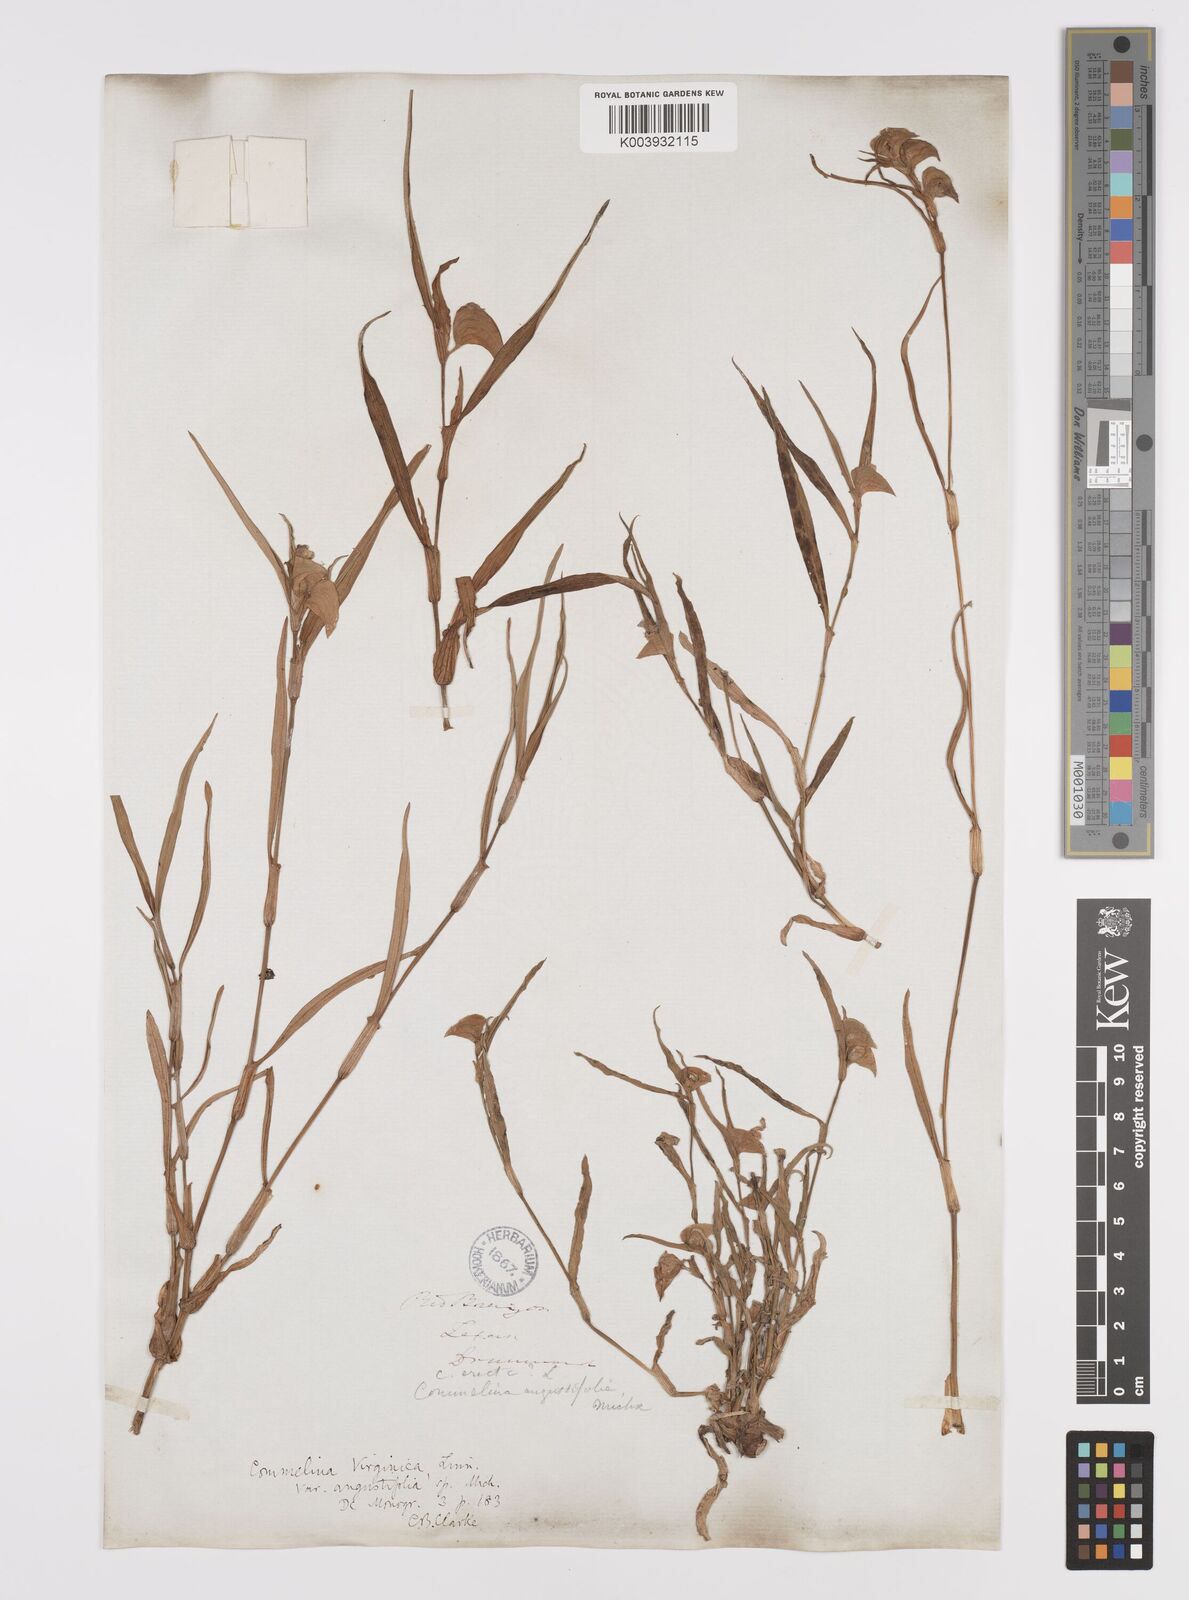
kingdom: Plantae
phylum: Tracheophyta
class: Liliopsida
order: Commelinales
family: Commelinaceae
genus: Commelina
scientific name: Commelina erecta
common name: Blousel blommetjie
